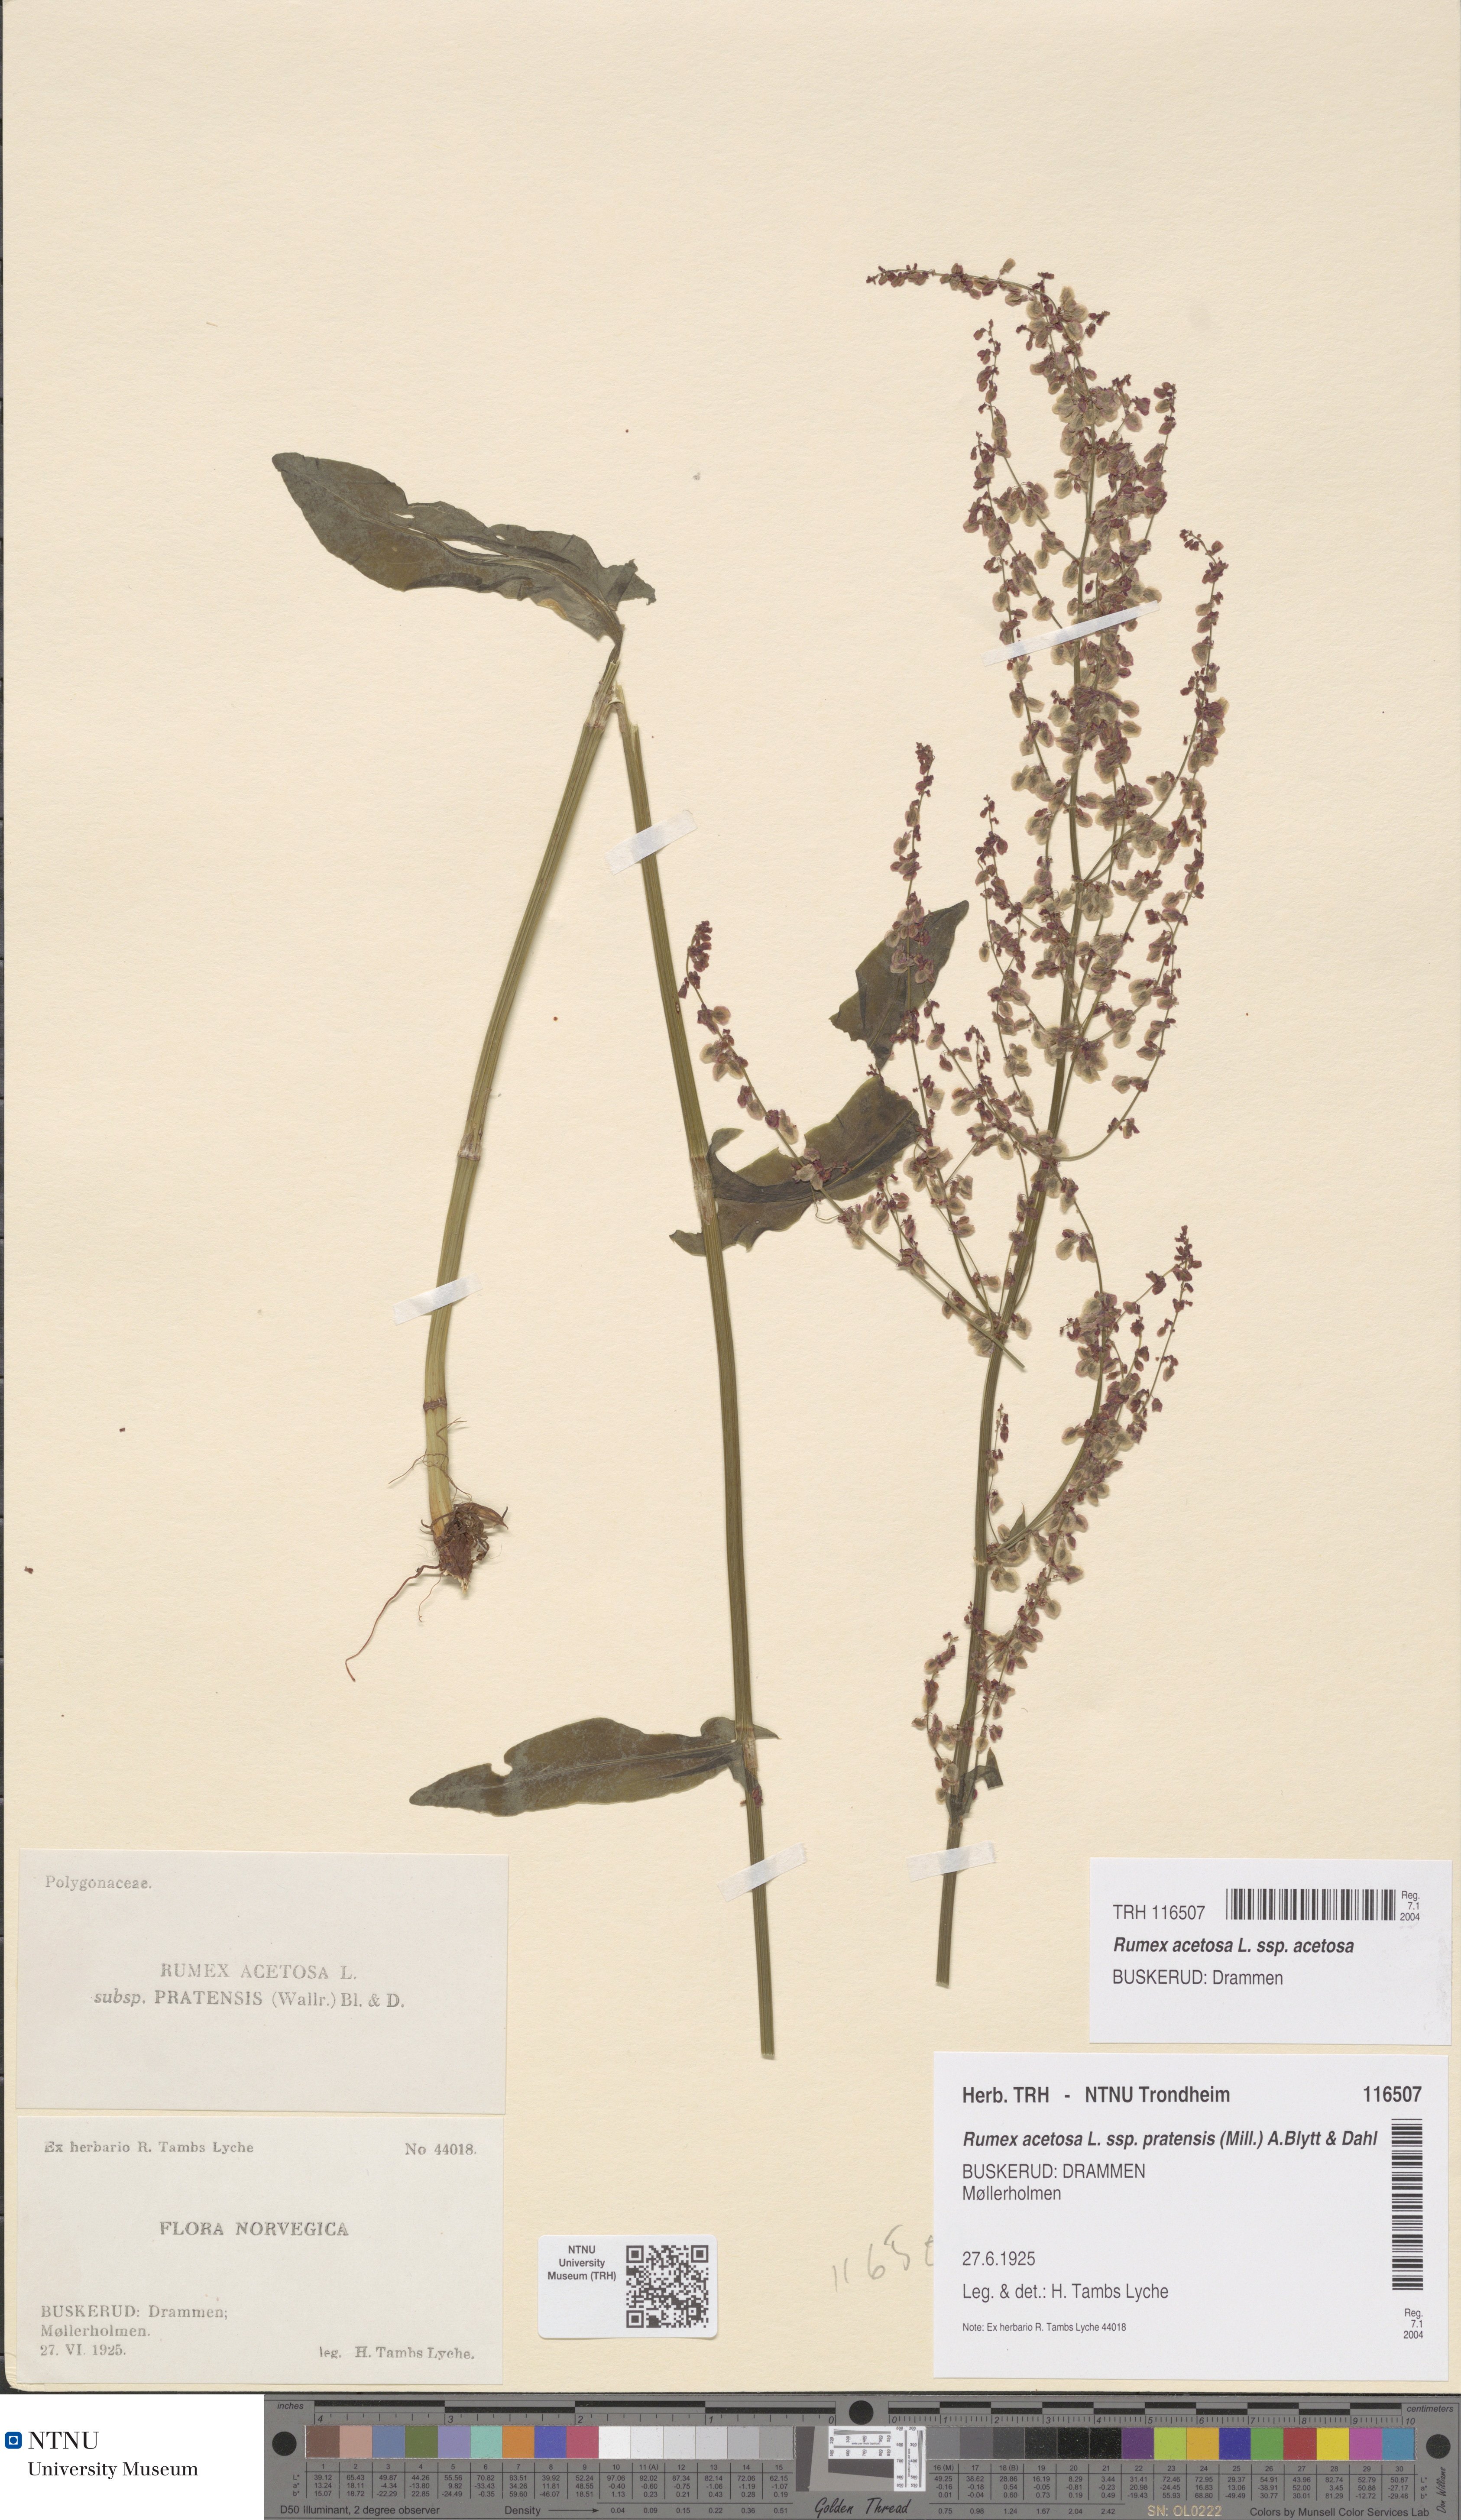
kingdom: Plantae
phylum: Tracheophyta
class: Magnoliopsida
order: Caryophyllales
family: Polygonaceae
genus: Rumex
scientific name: Rumex acetosa
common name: Garden sorrel
